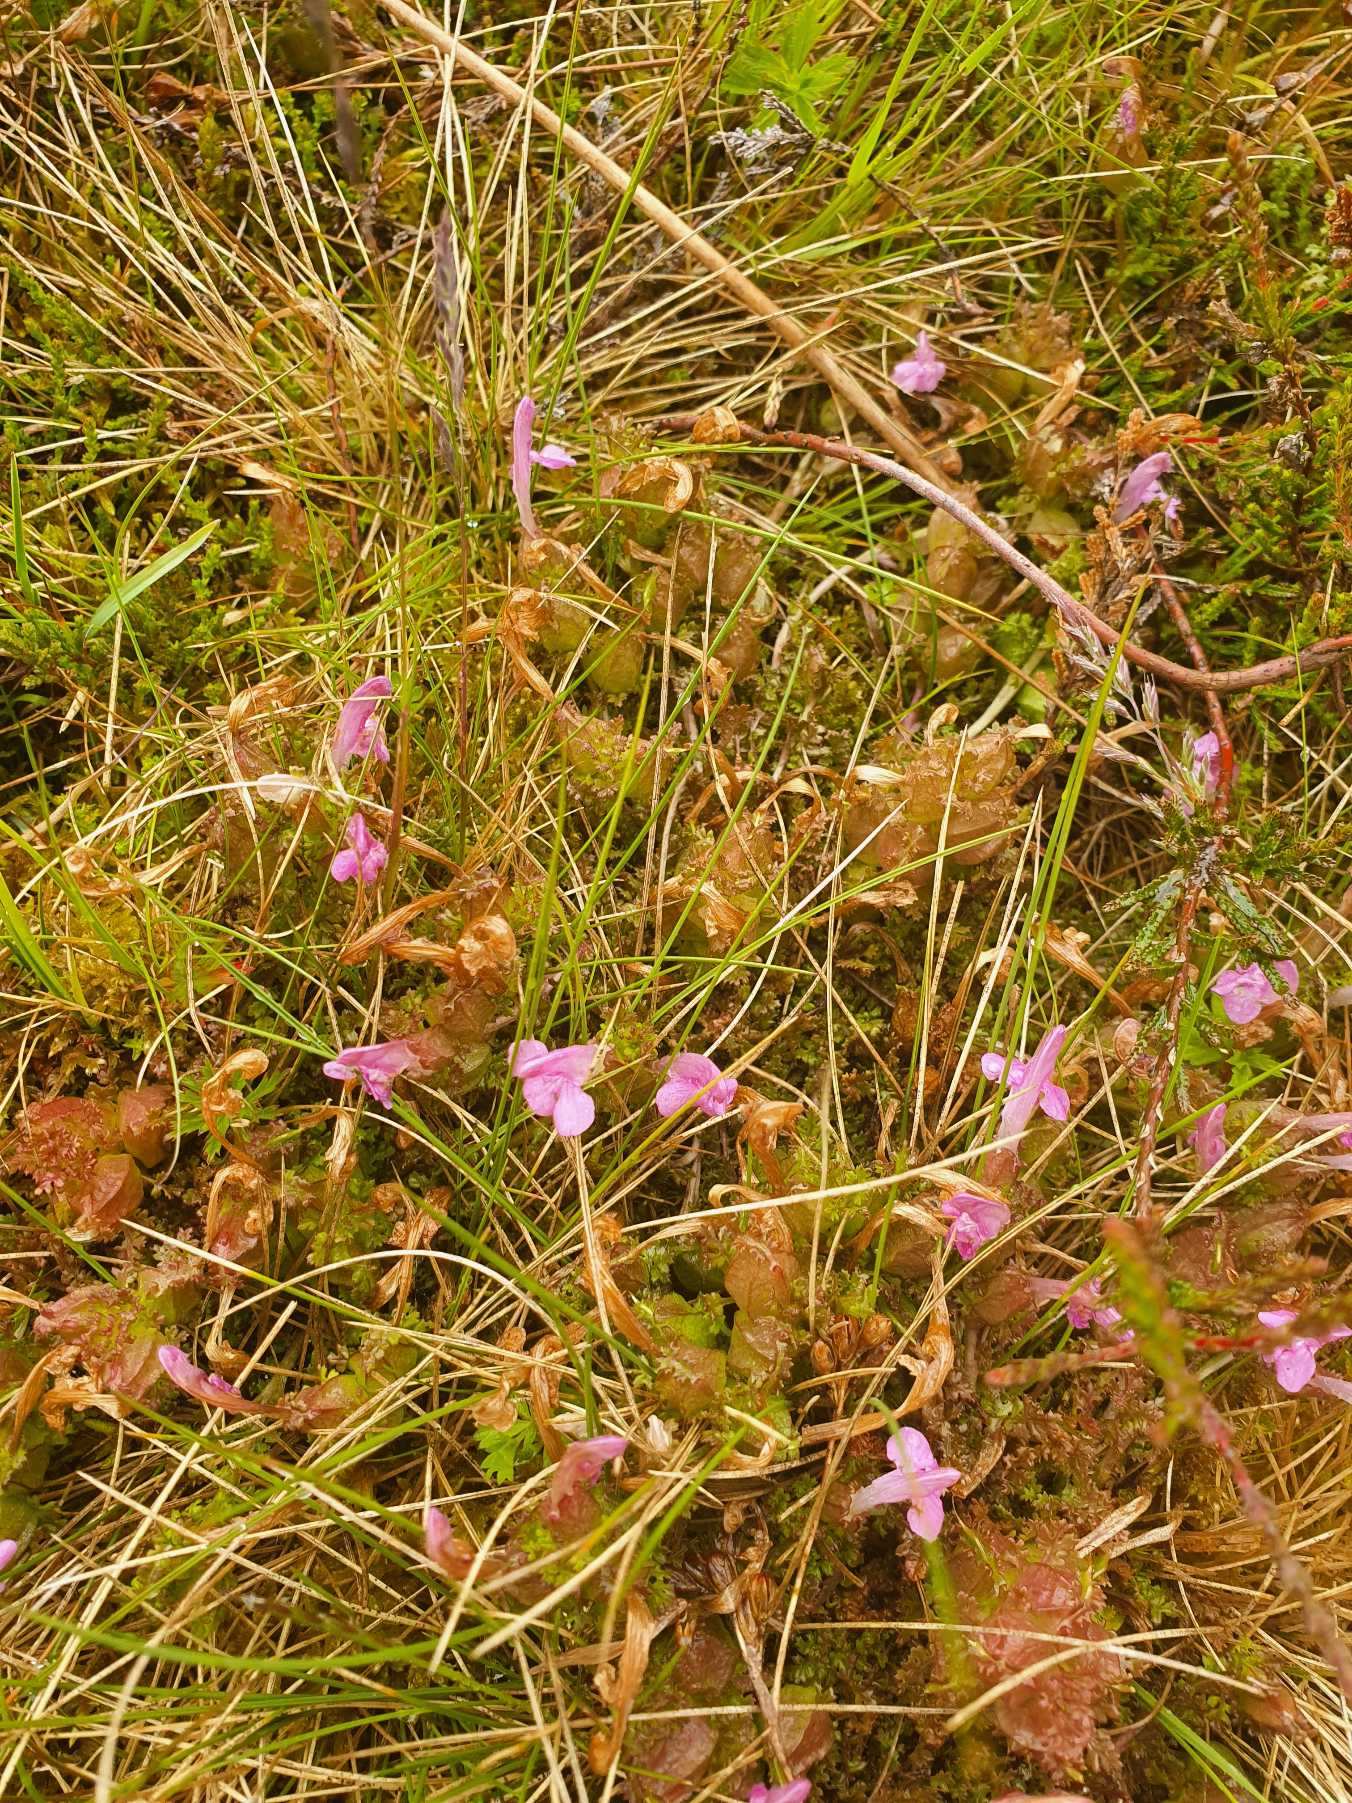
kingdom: Plantae
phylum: Tracheophyta
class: Magnoliopsida
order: Lamiales
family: Orobanchaceae
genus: Pedicularis
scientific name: Pedicularis sylvatica
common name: Mose-troldurt
